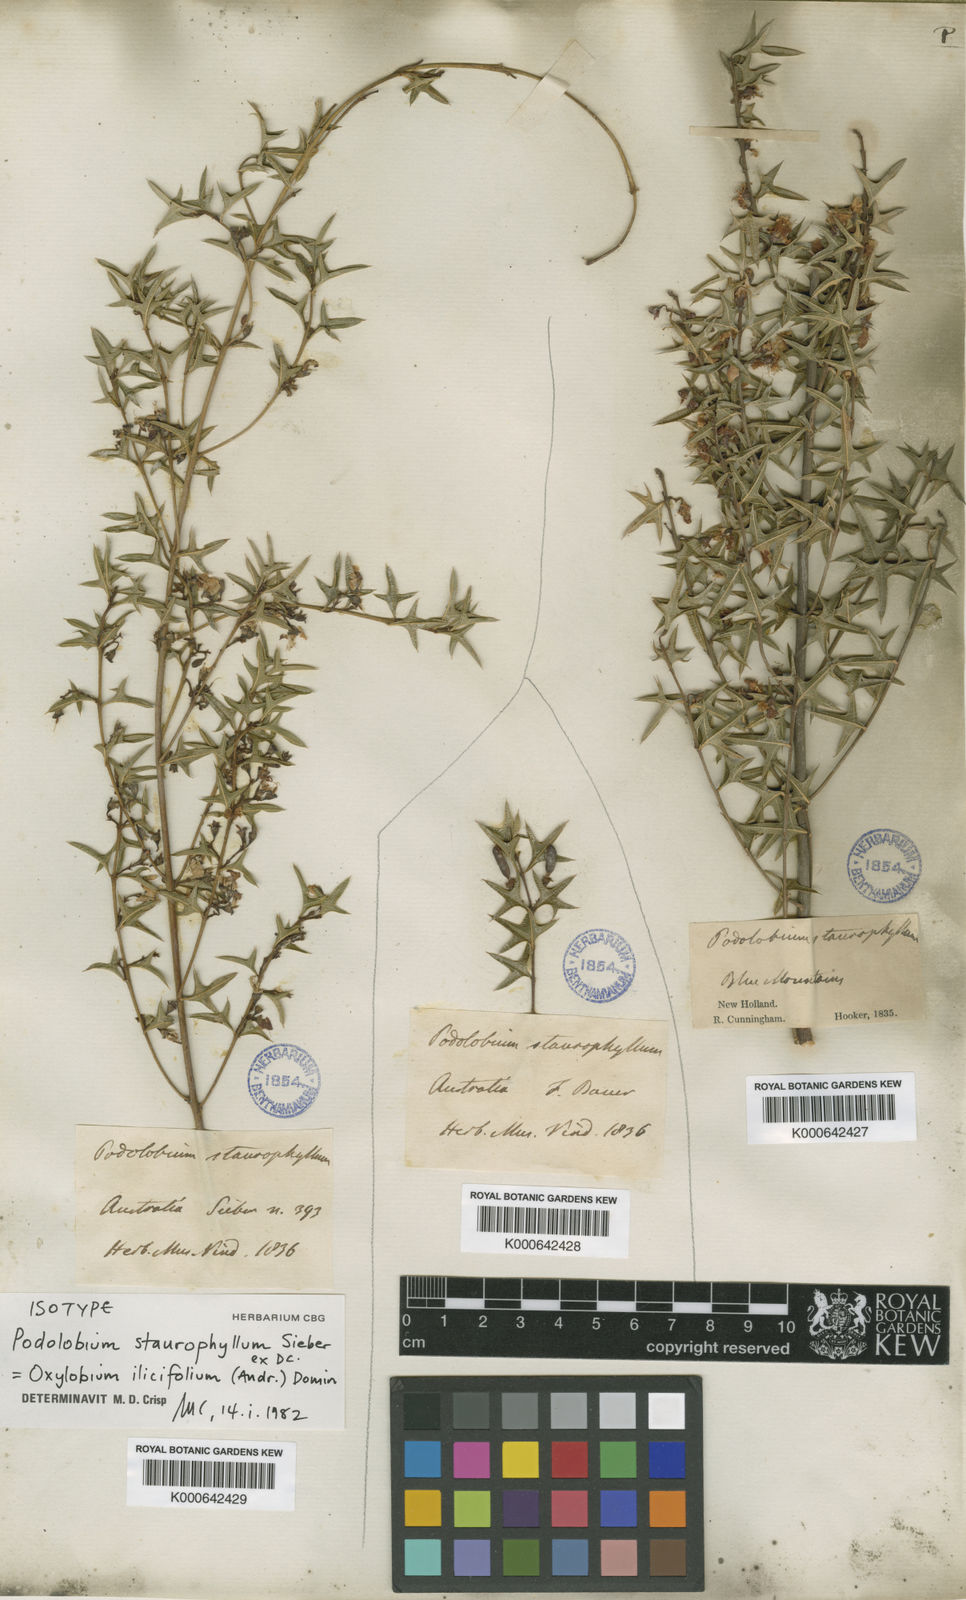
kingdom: Plantae
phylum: Tracheophyta
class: Magnoliopsida
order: Fabales
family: Fabaceae
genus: Podolobium
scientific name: Podolobium ilicifolium
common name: Native holly
